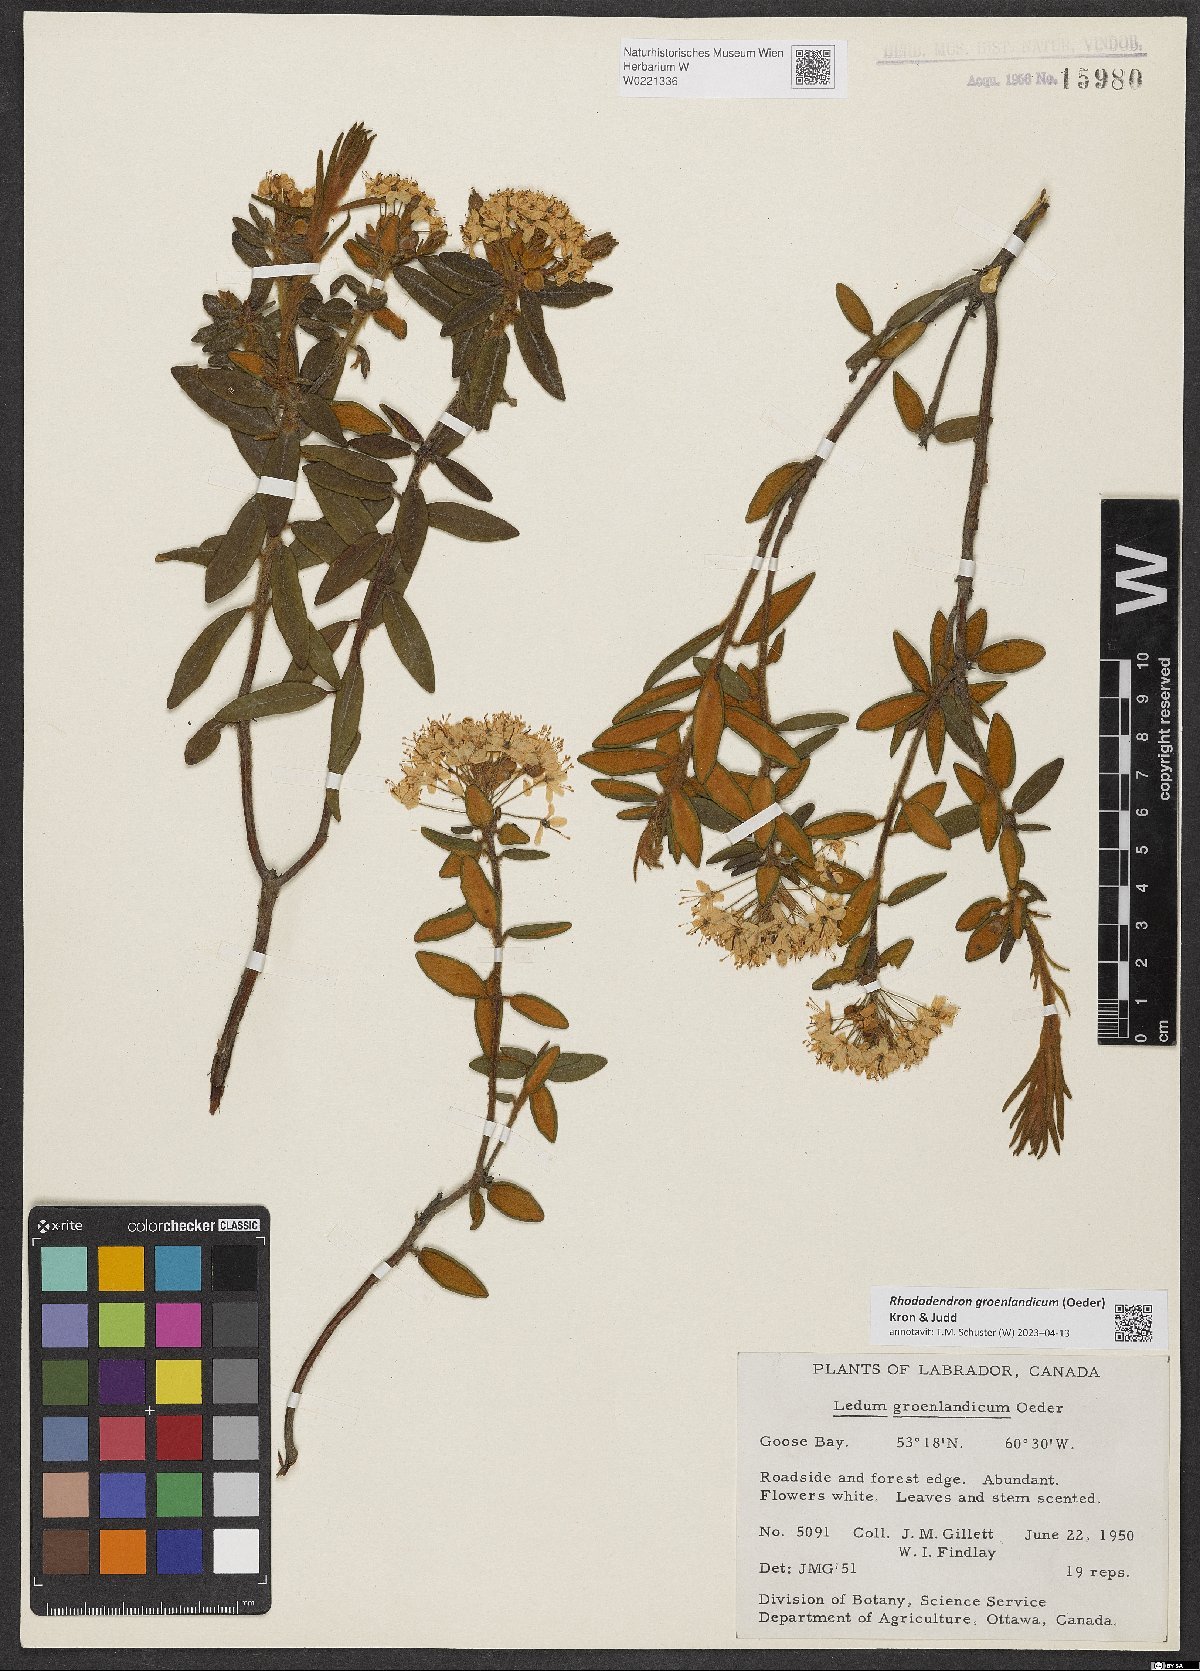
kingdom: Plantae
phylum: Tracheophyta
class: Magnoliopsida
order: Ericales
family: Ericaceae
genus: Rhododendron
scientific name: Rhododendron groenlandicum
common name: Bog labrador tea
